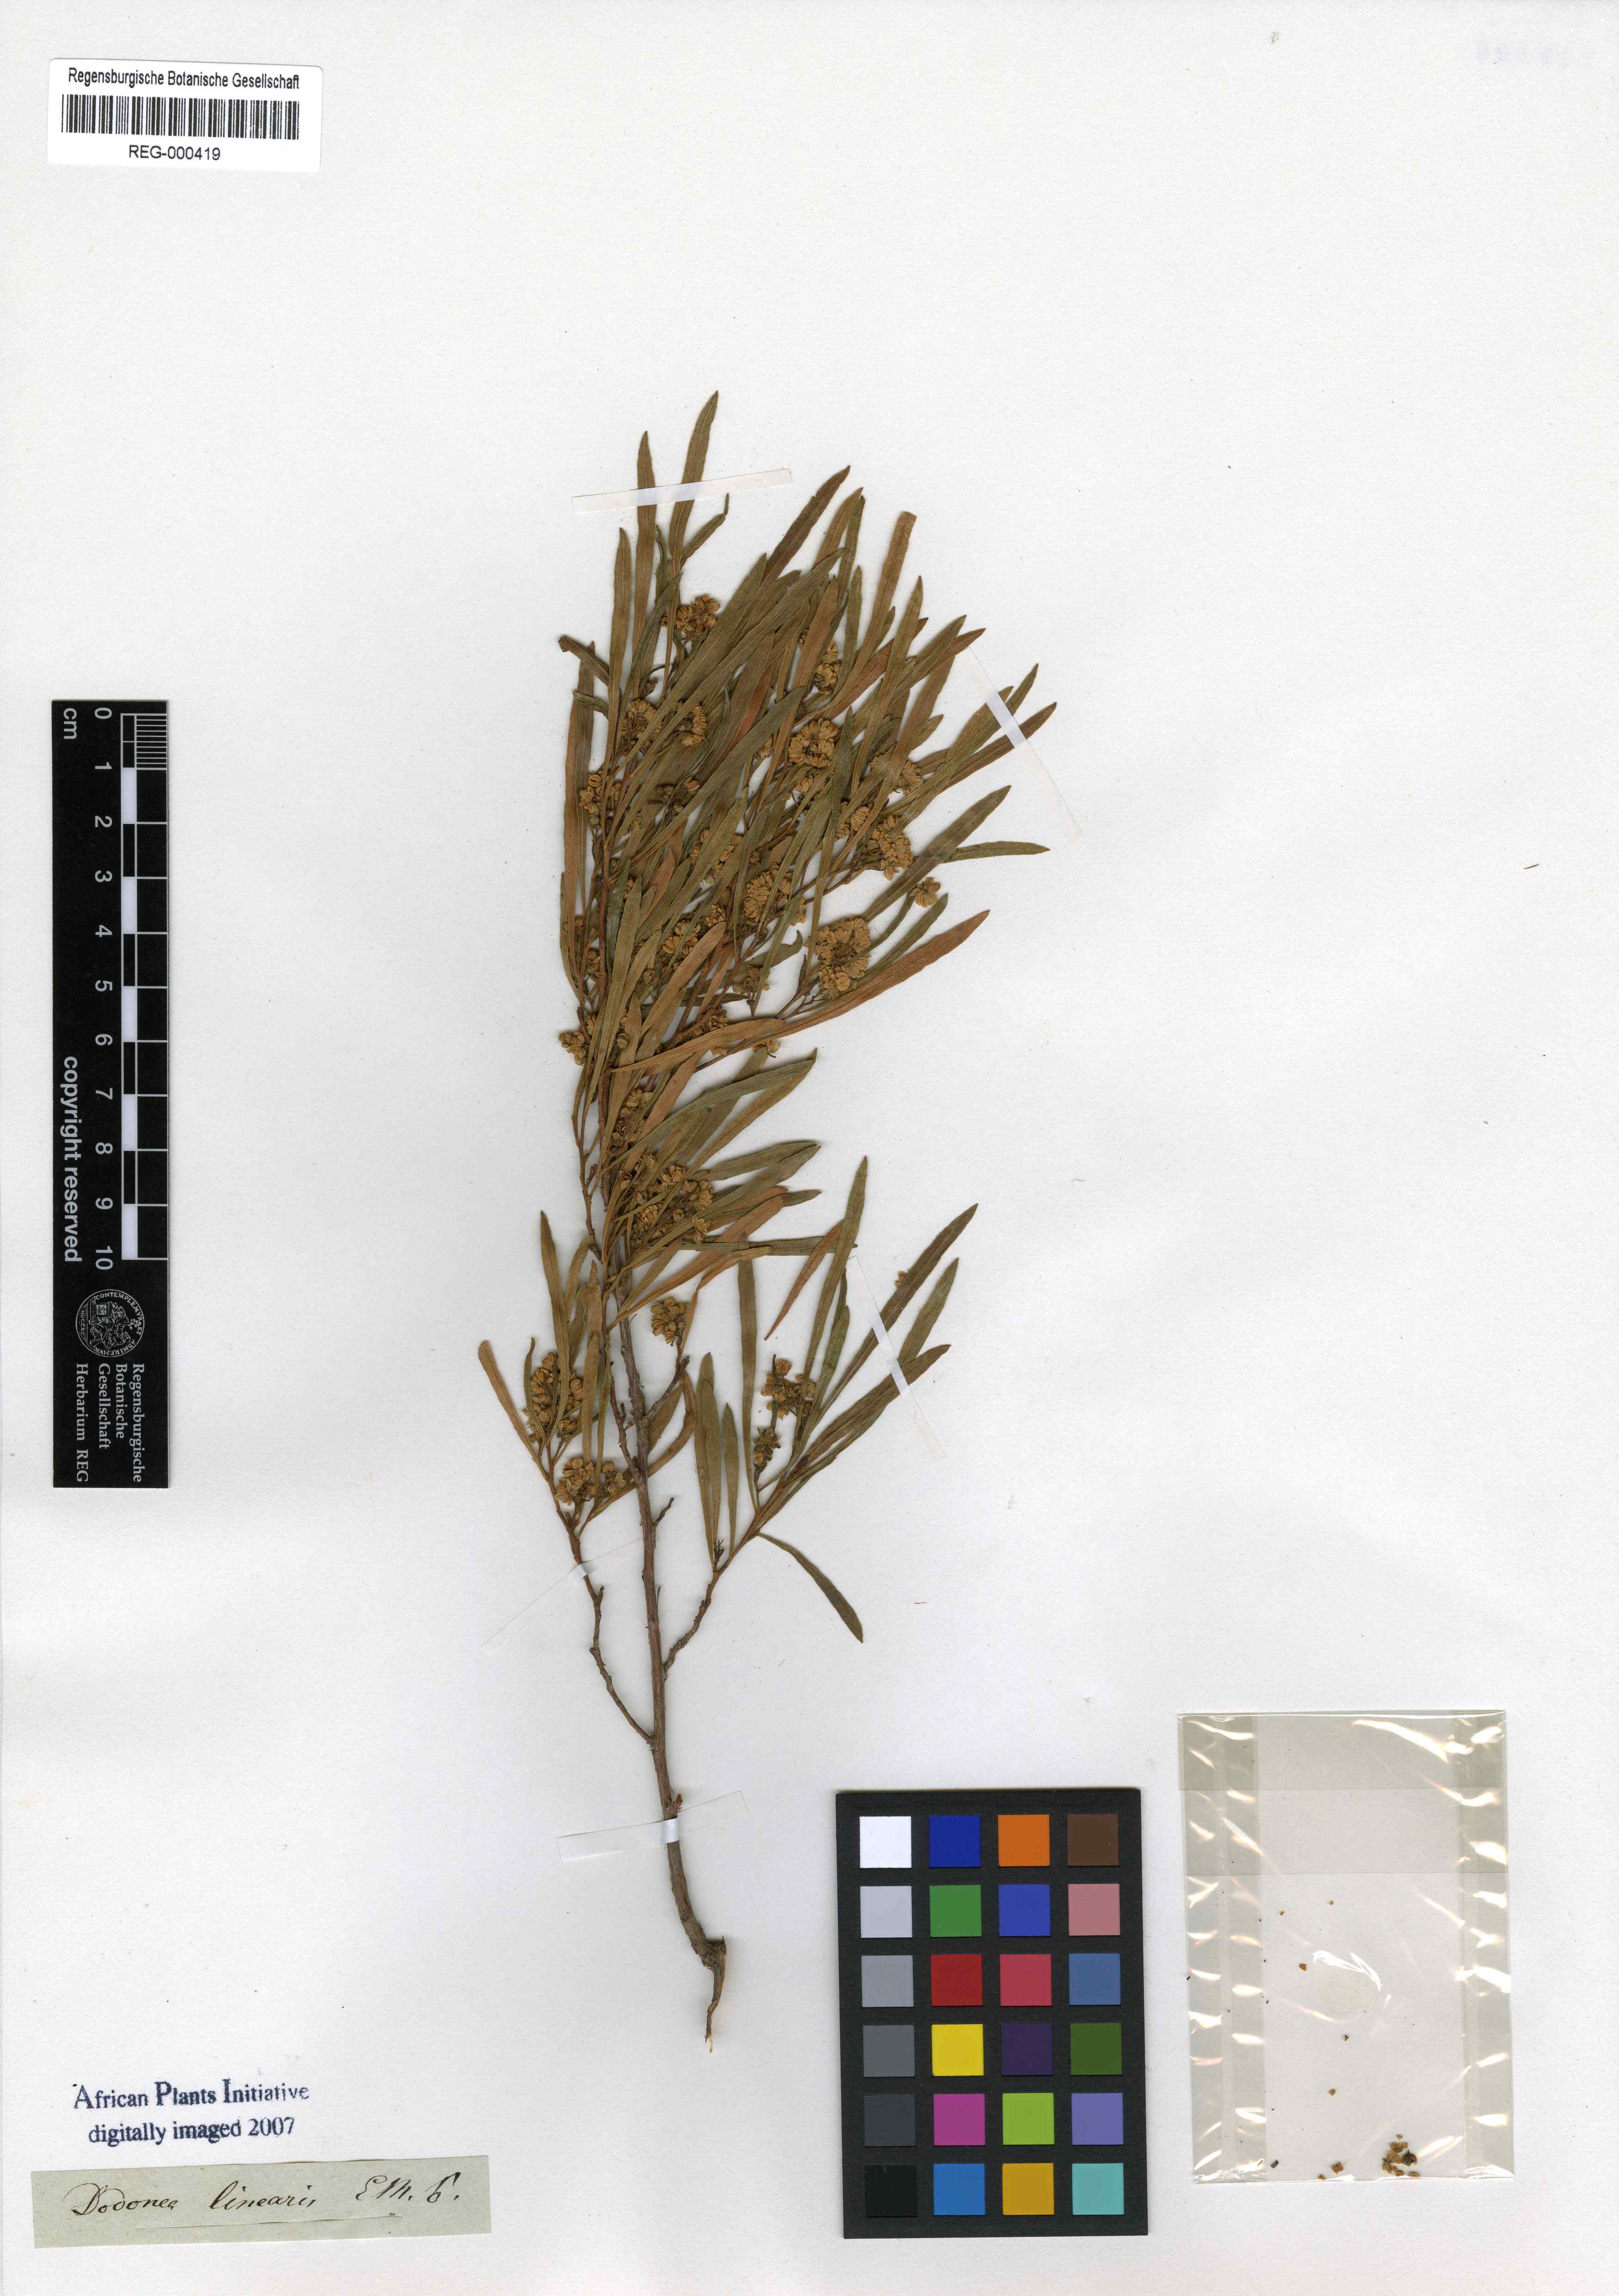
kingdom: Plantae
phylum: Tracheophyta
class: Magnoliopsida
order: Sapindales
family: Sapindaceae
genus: Dodonaea
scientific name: Dodonaea viscosa
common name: Hopbush
